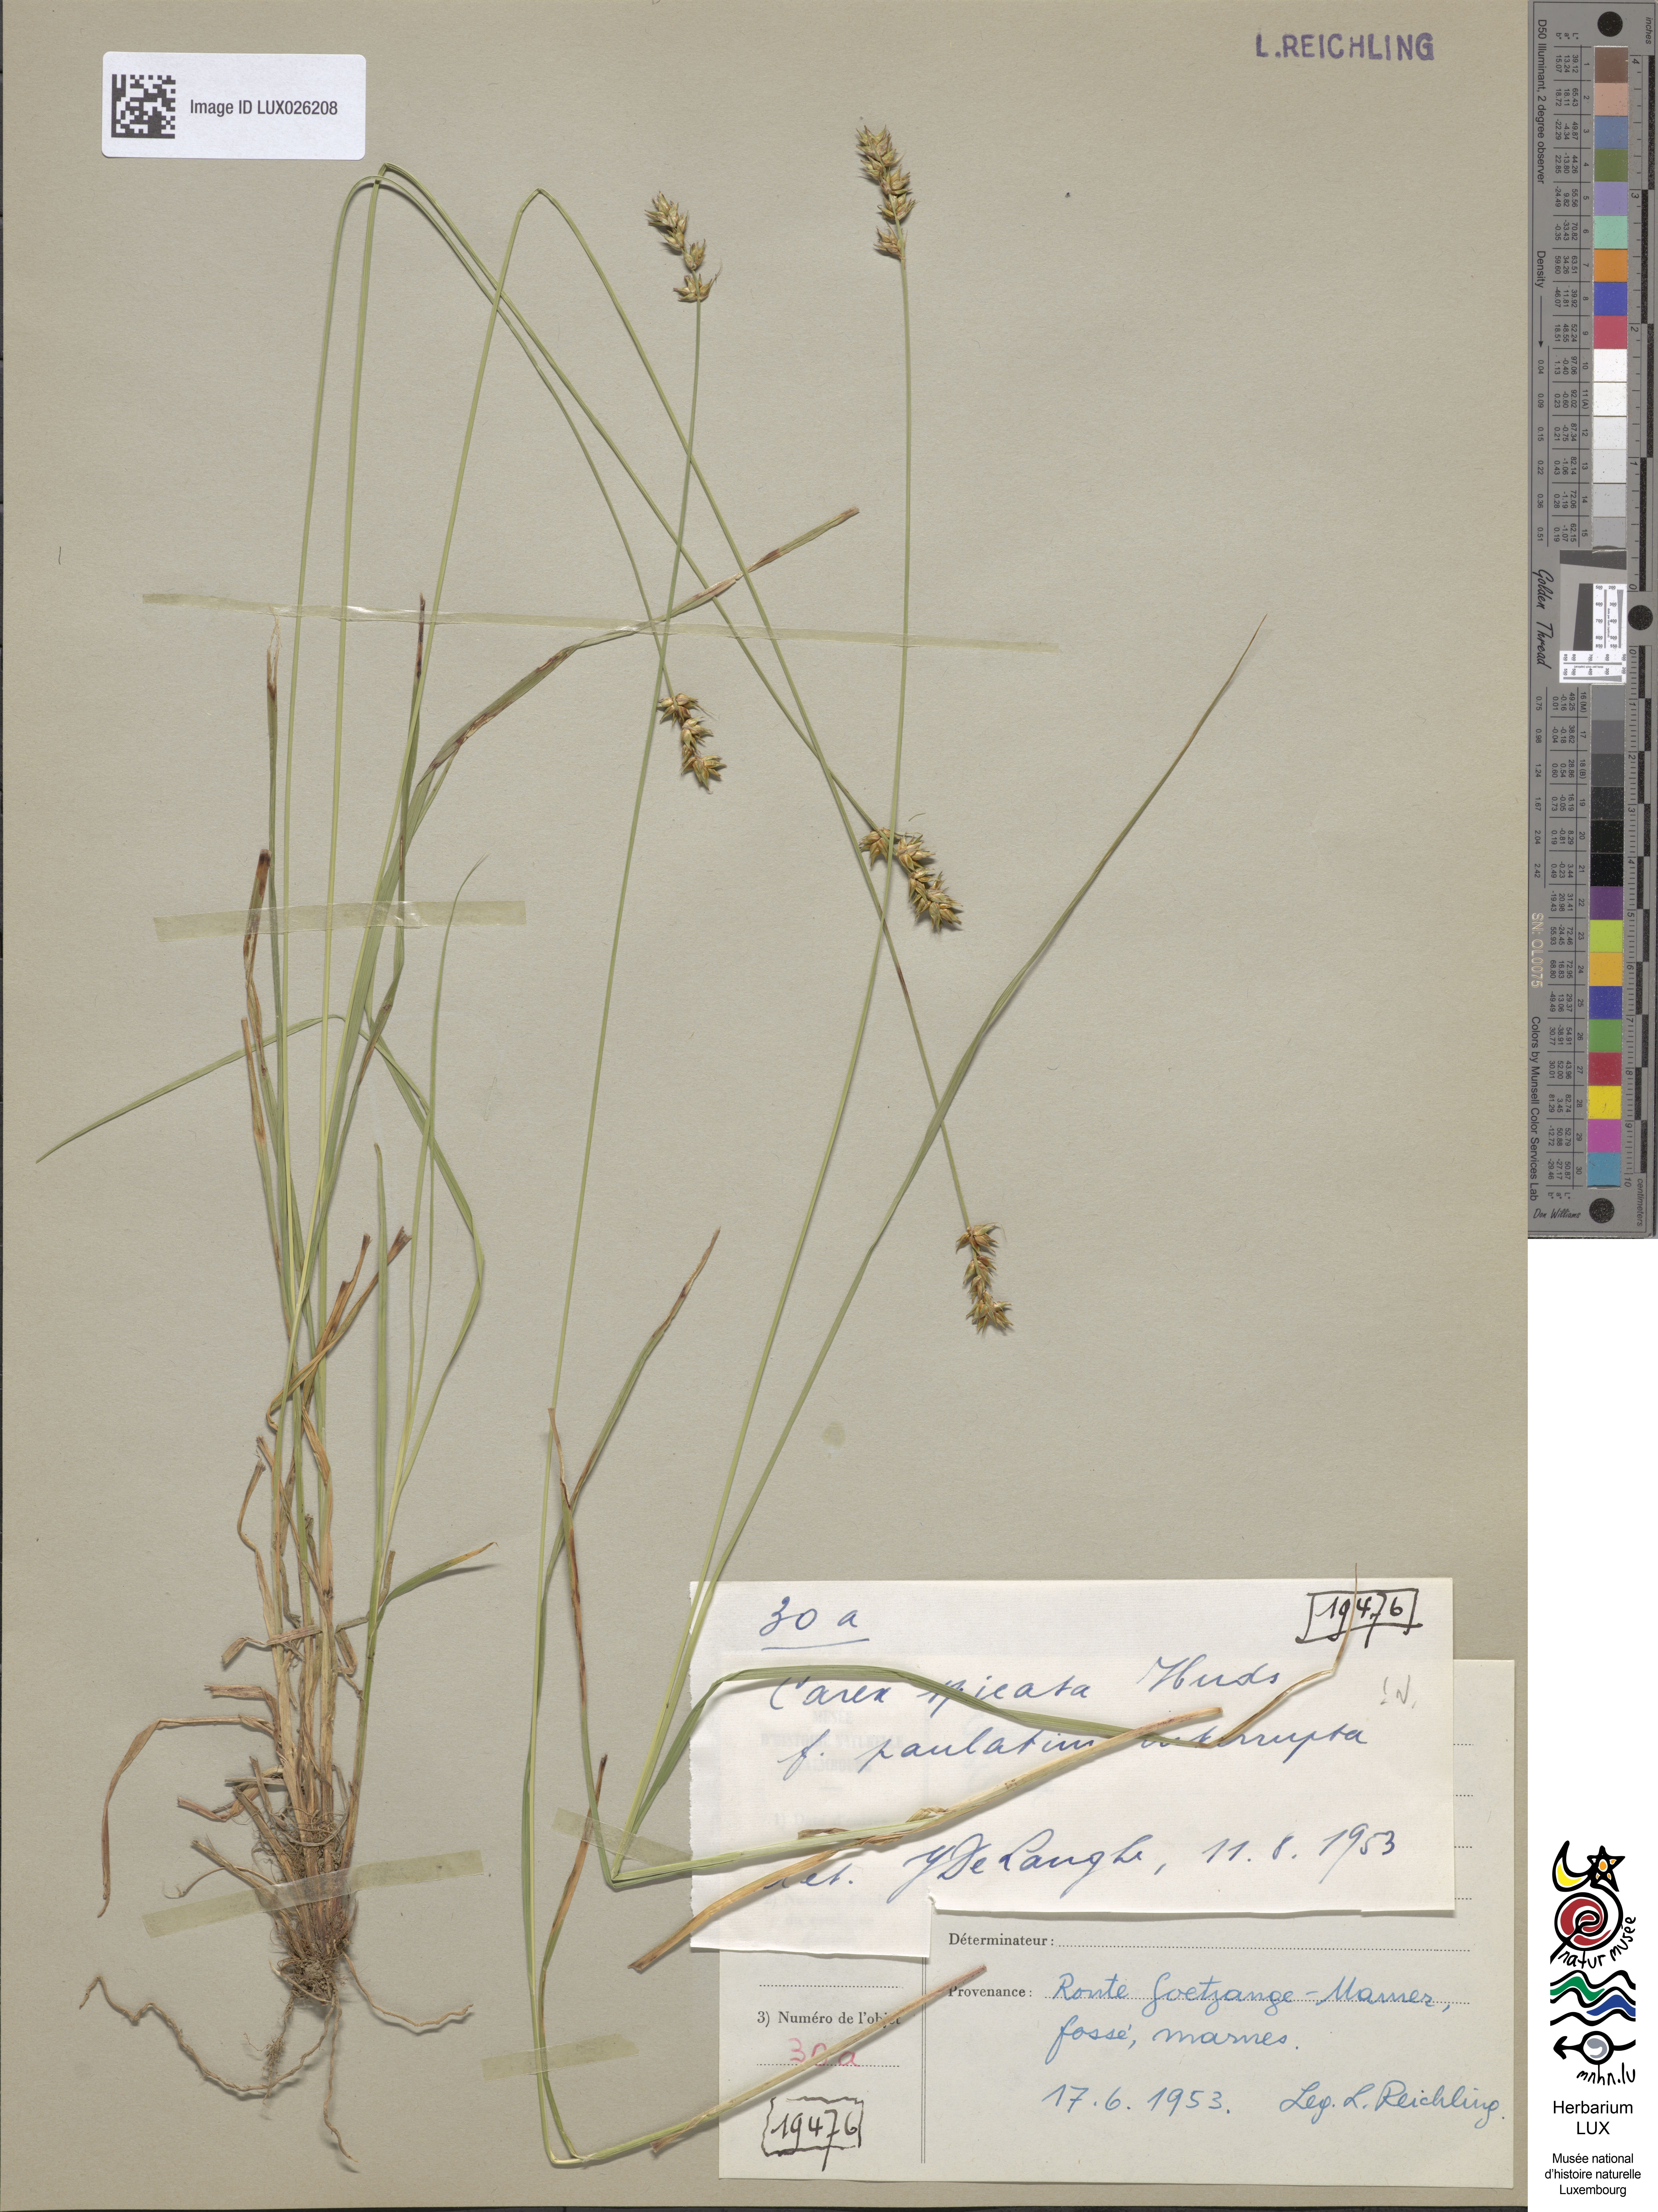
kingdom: Plantae
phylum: Tracheophyta
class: Liliopsida
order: Poales
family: Cyperaceae
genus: Carex
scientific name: Carex spicata
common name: Spiked sedge
